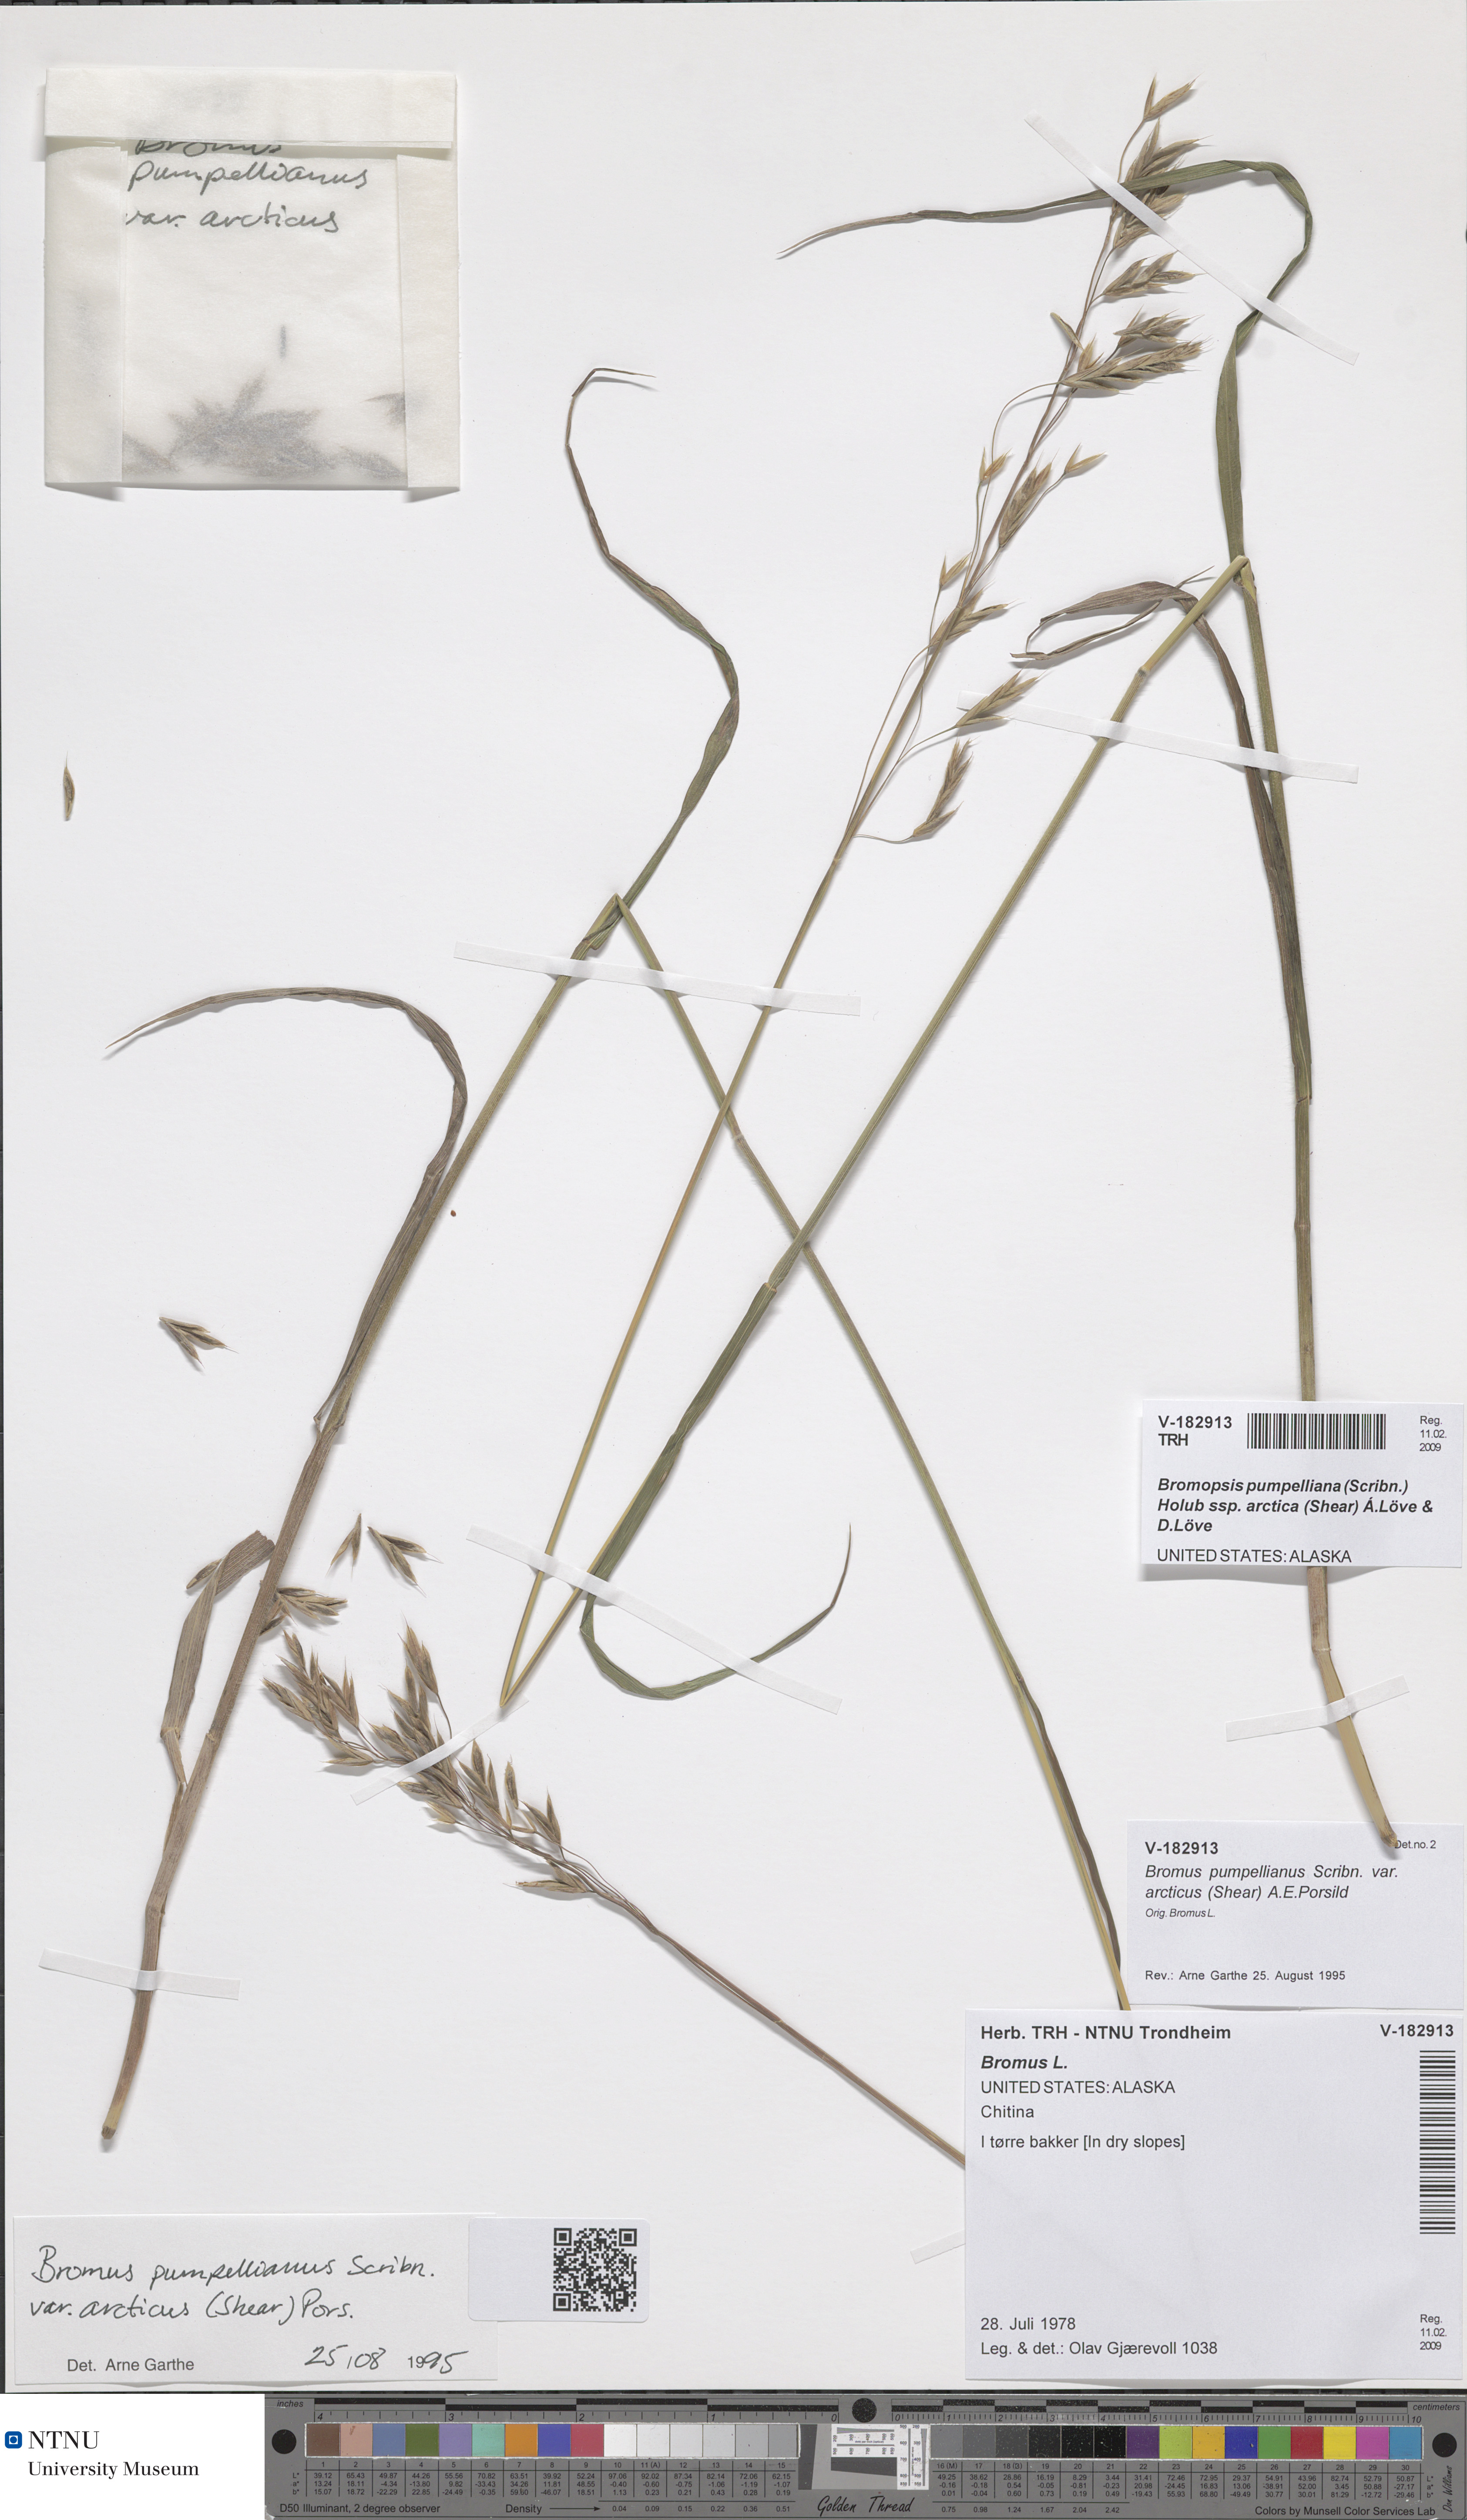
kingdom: Plantae
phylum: Tracheophyta
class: Liliopsida
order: Poales
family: Poaceae
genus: Bromus
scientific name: Bromus pumpellianus
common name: Pumpelly's brome
